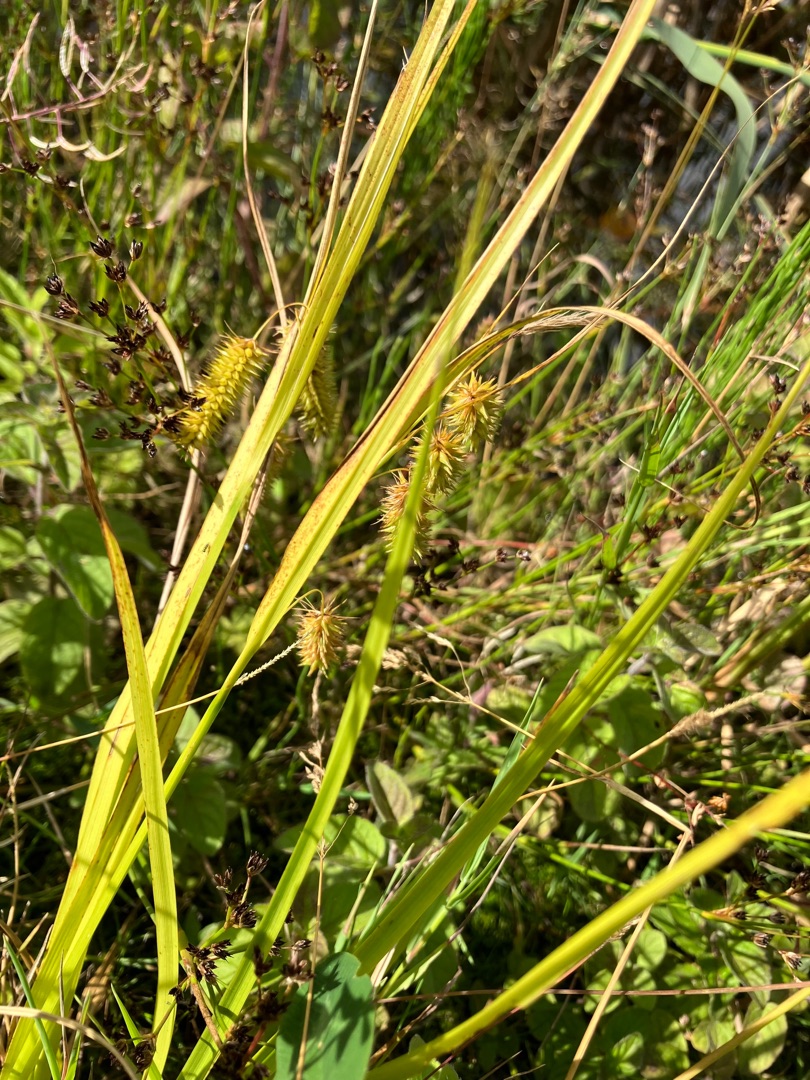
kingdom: Plantae
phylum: Tracheophyta
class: Liliopsida
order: Poales
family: Cyperaceae
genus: Carex
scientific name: Carex pseudocyperus
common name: Knippe-star
